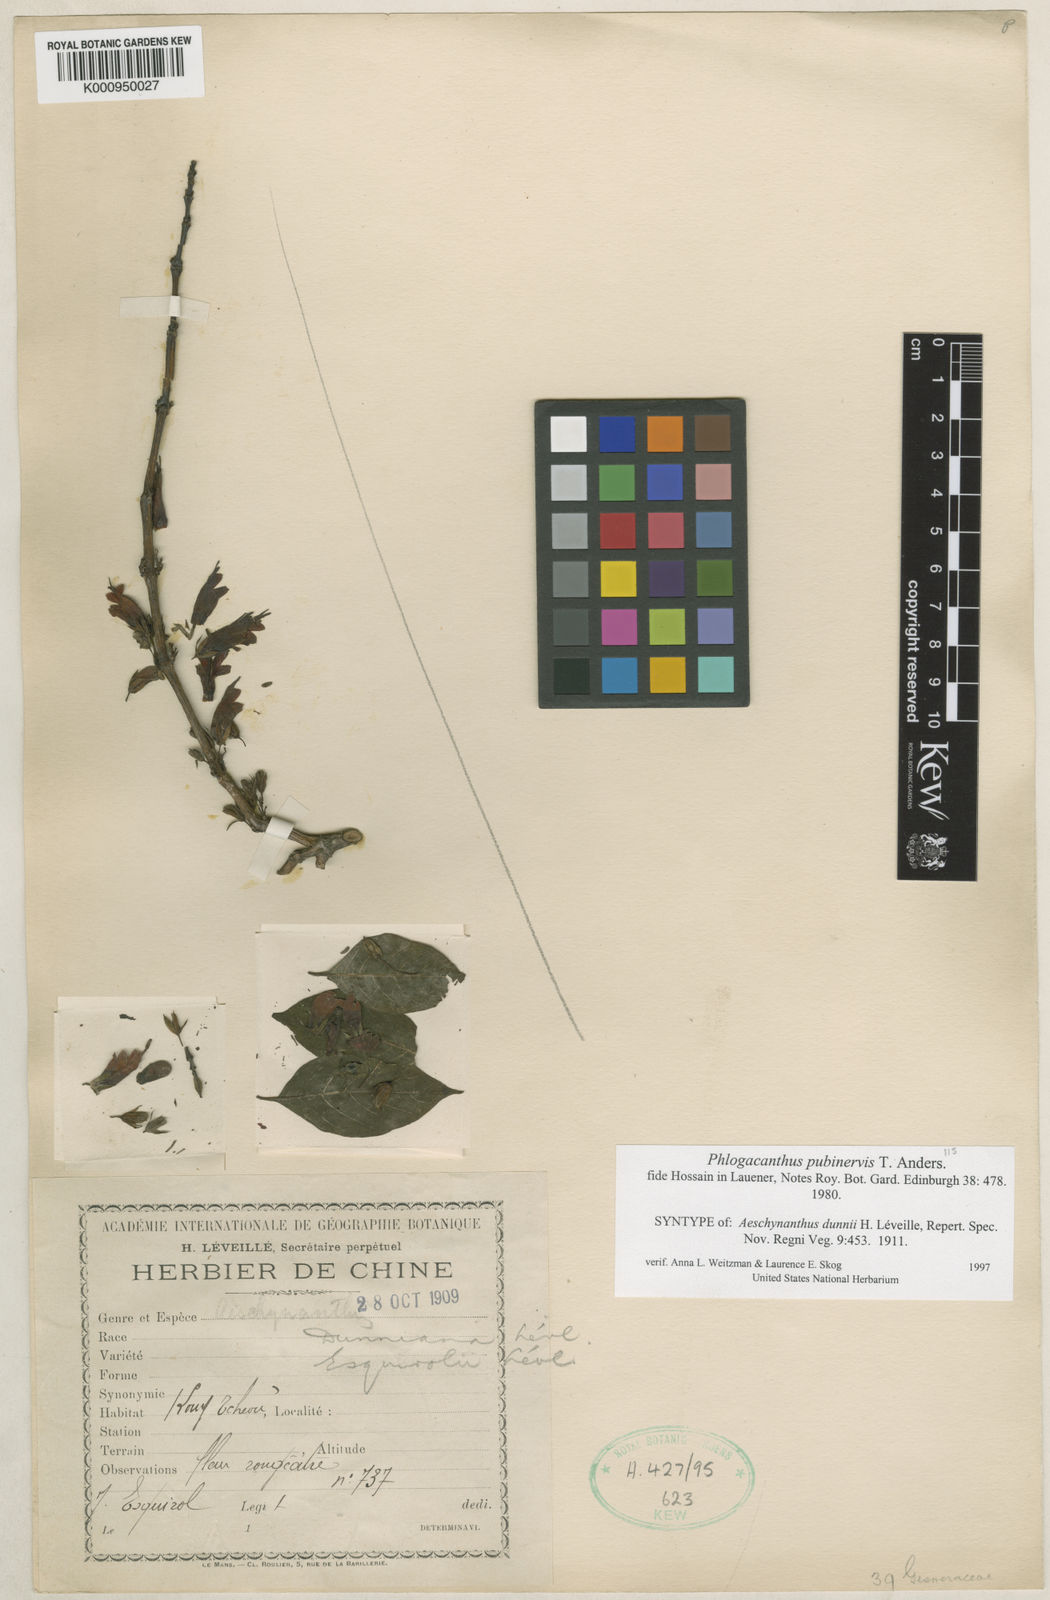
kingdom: Plantae
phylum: Tracheophyta
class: Magnoliopsida
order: Lamiales
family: Acanthaceae
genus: Phlogacanthus
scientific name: Phlogacanthus pubinervius
